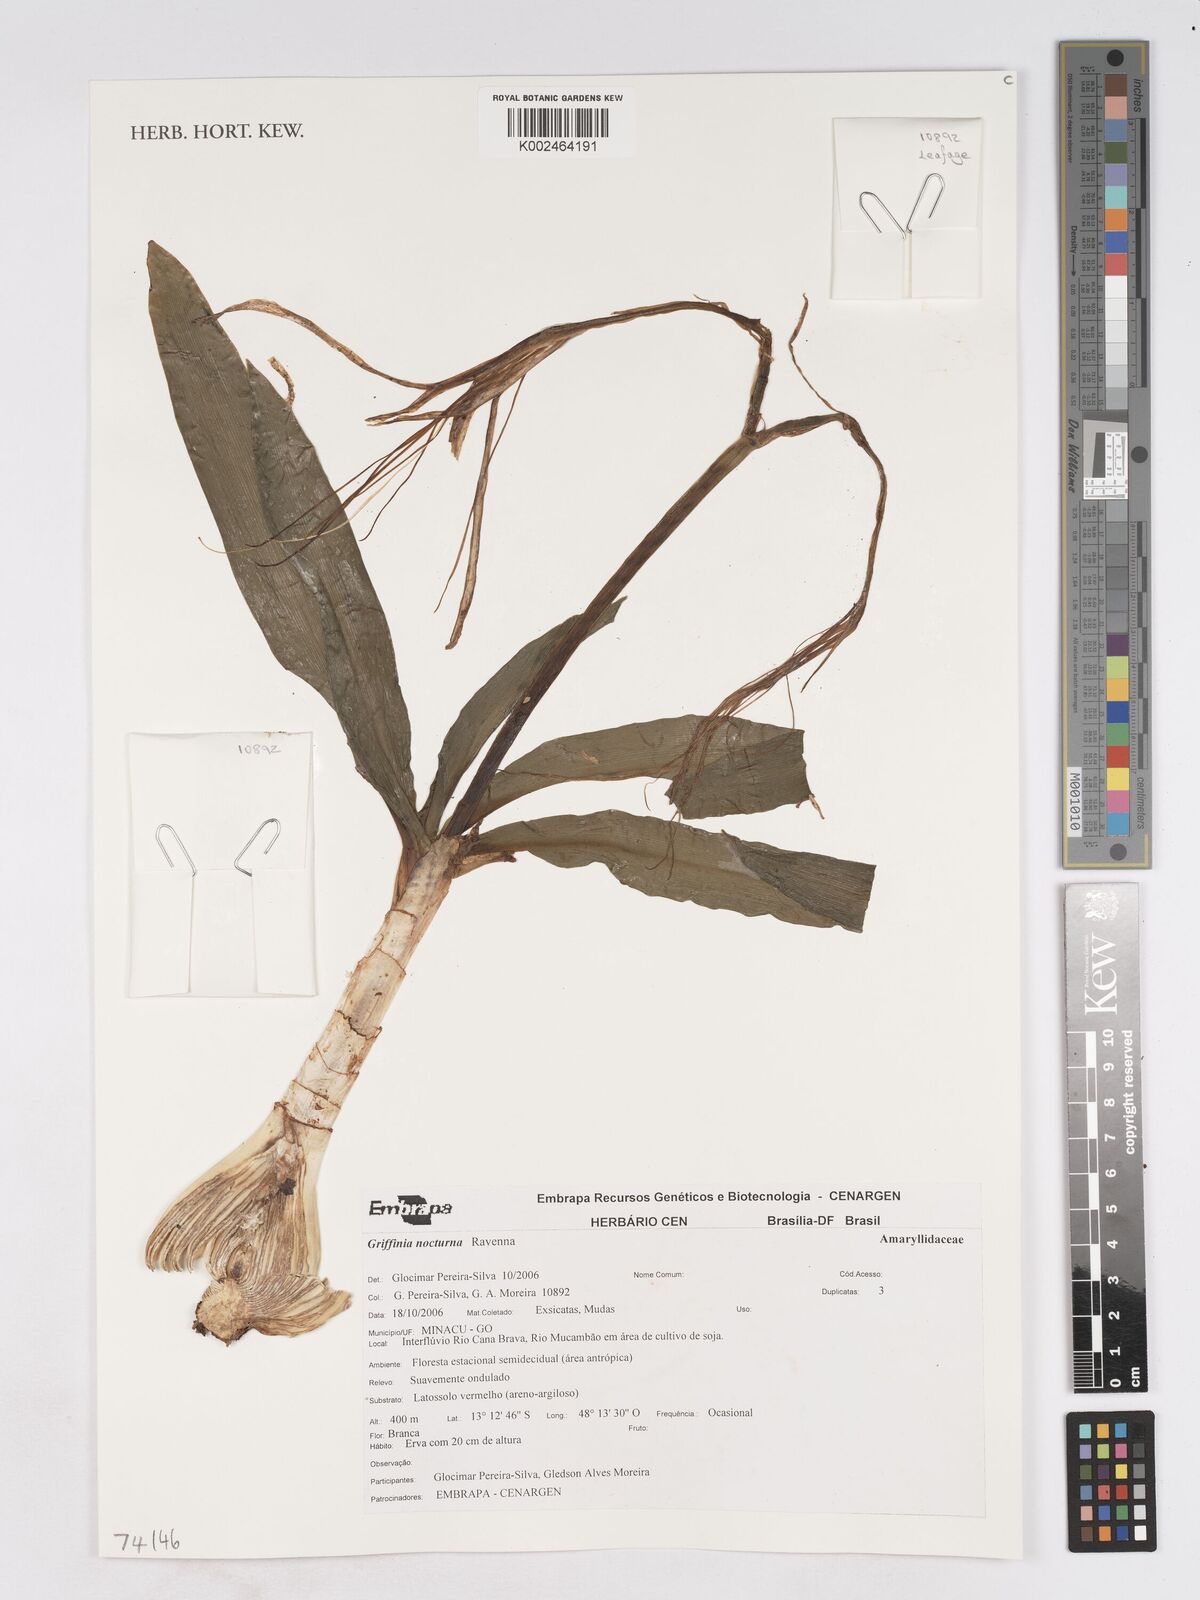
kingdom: Plantae
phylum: Tracheophyta
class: Liliopsida
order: Asparagales
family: Amaryllidaceae
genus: Griffinia
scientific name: Griffinia nocturna
